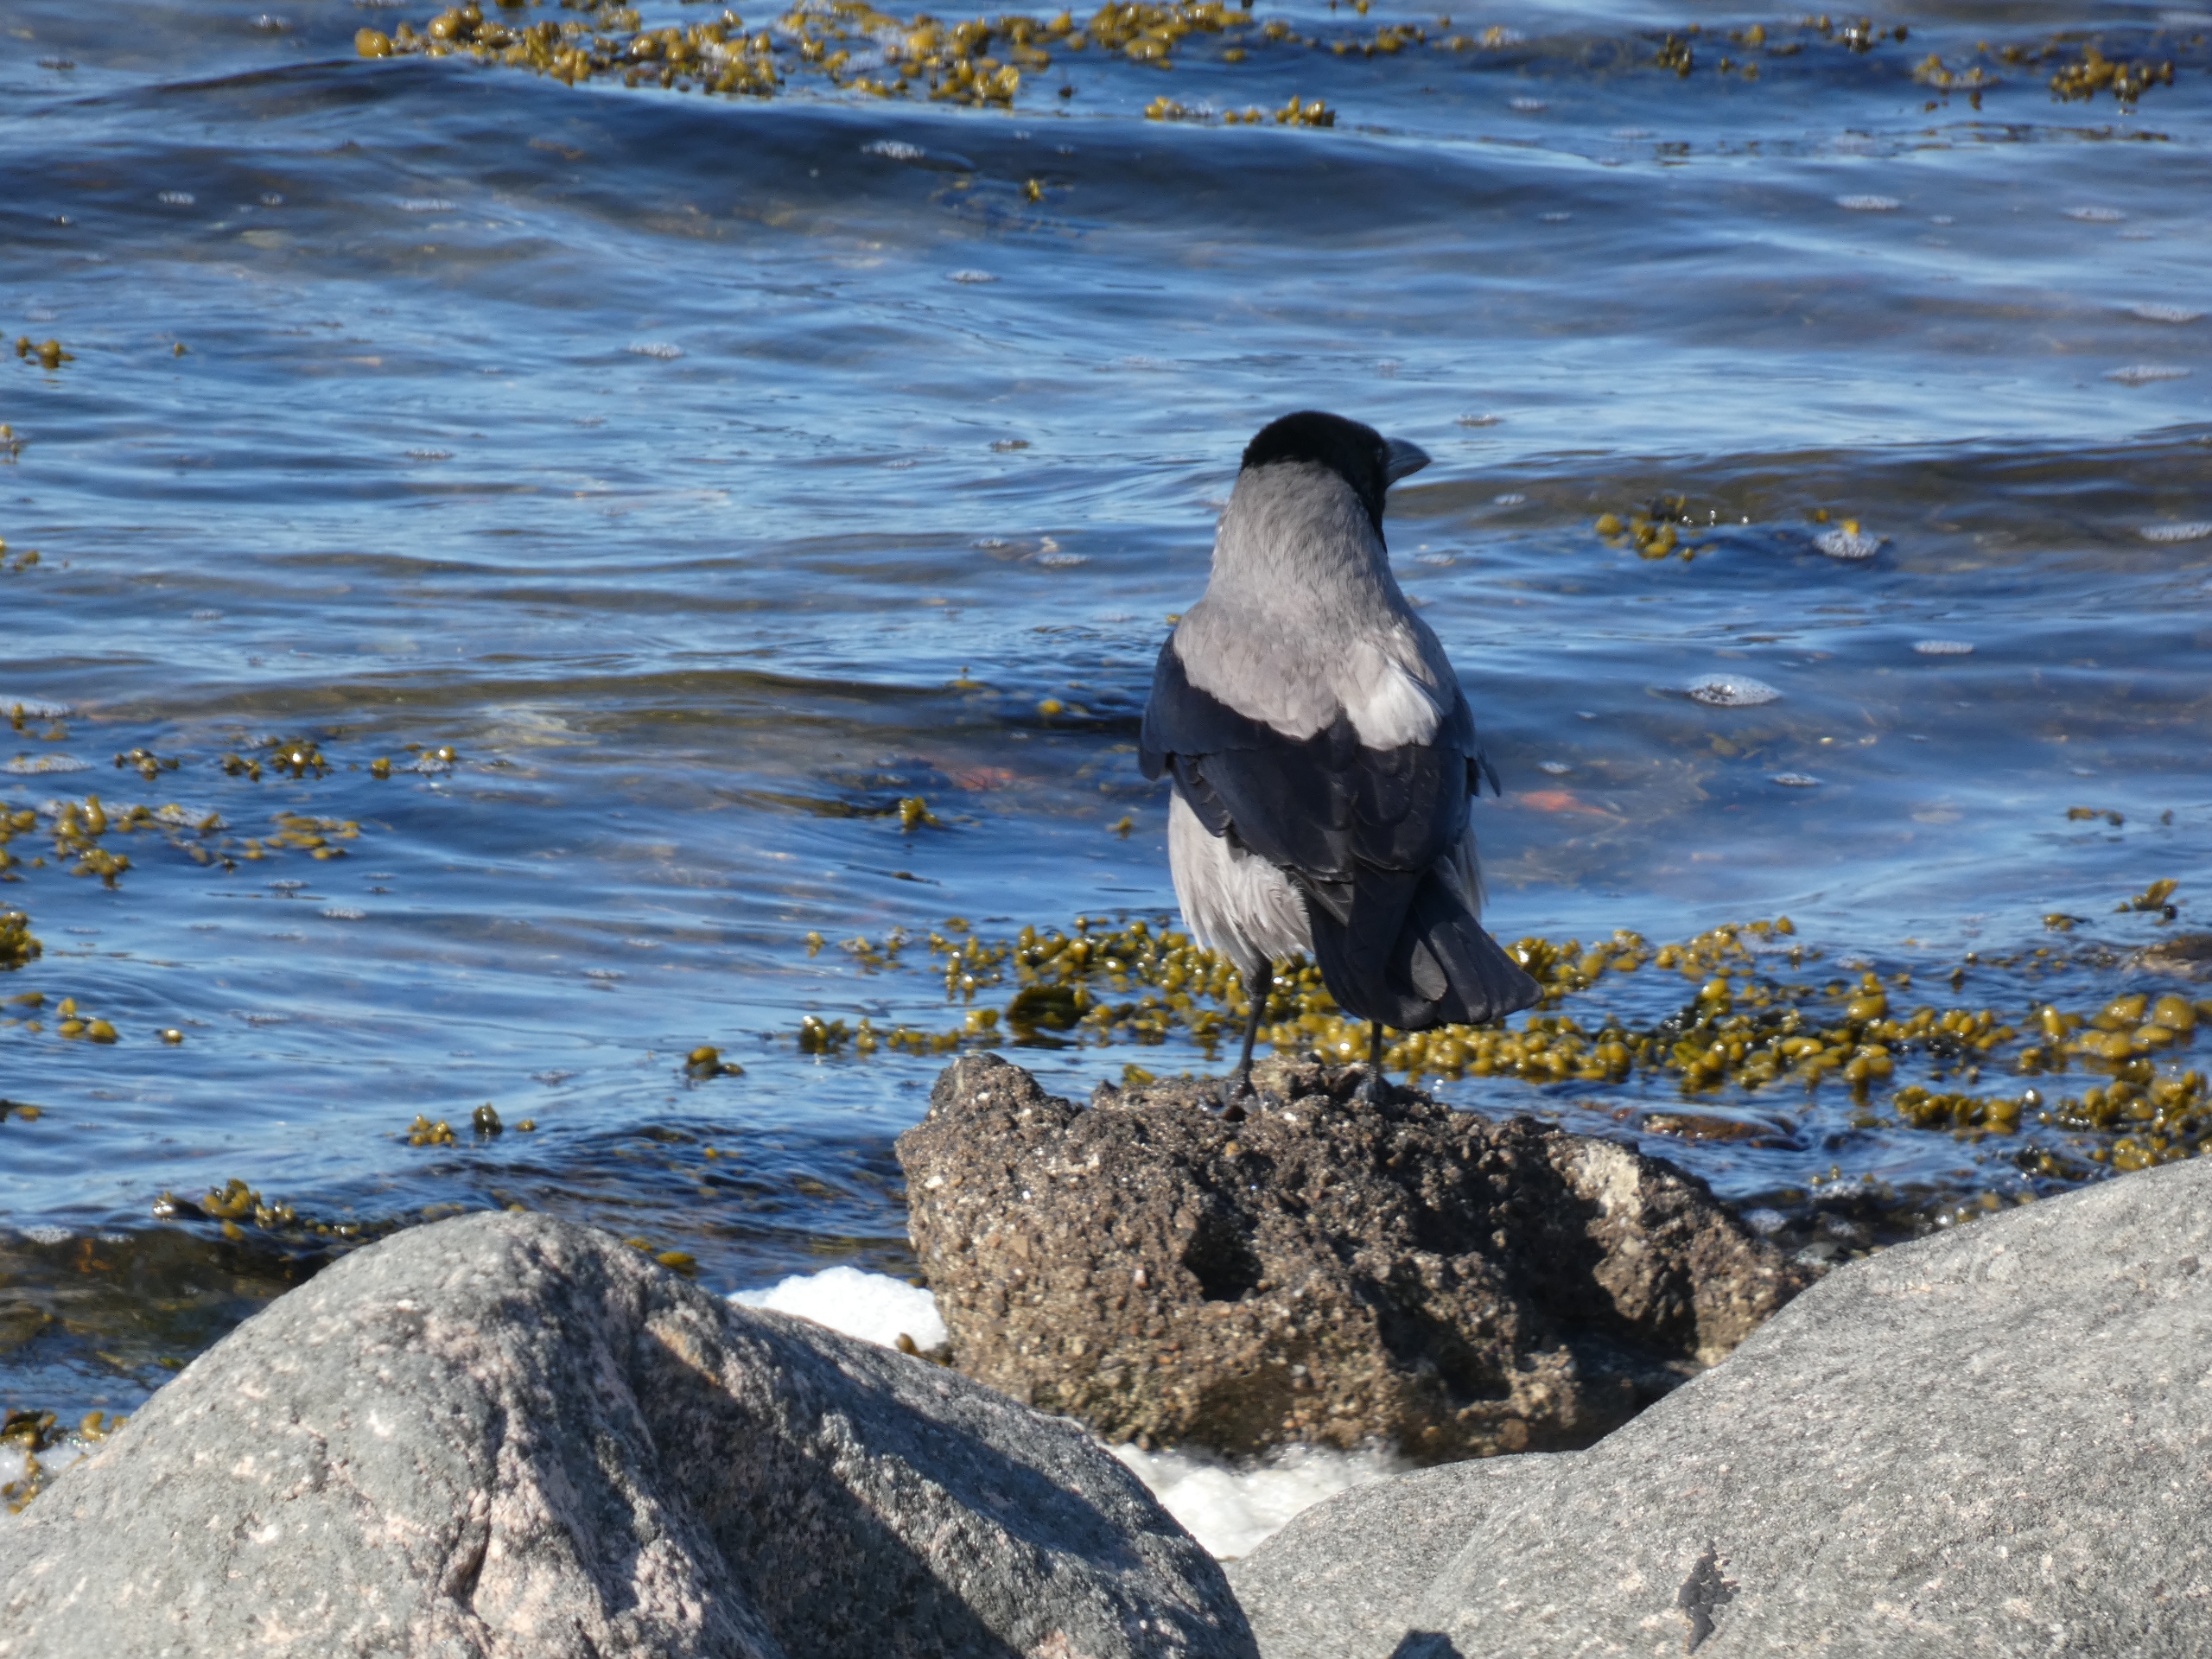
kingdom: Animalia
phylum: Chordata
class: Aves
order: Passeriformes
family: Corvidae
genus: Corvus
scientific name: Corvus cornix
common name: Gråkrage
